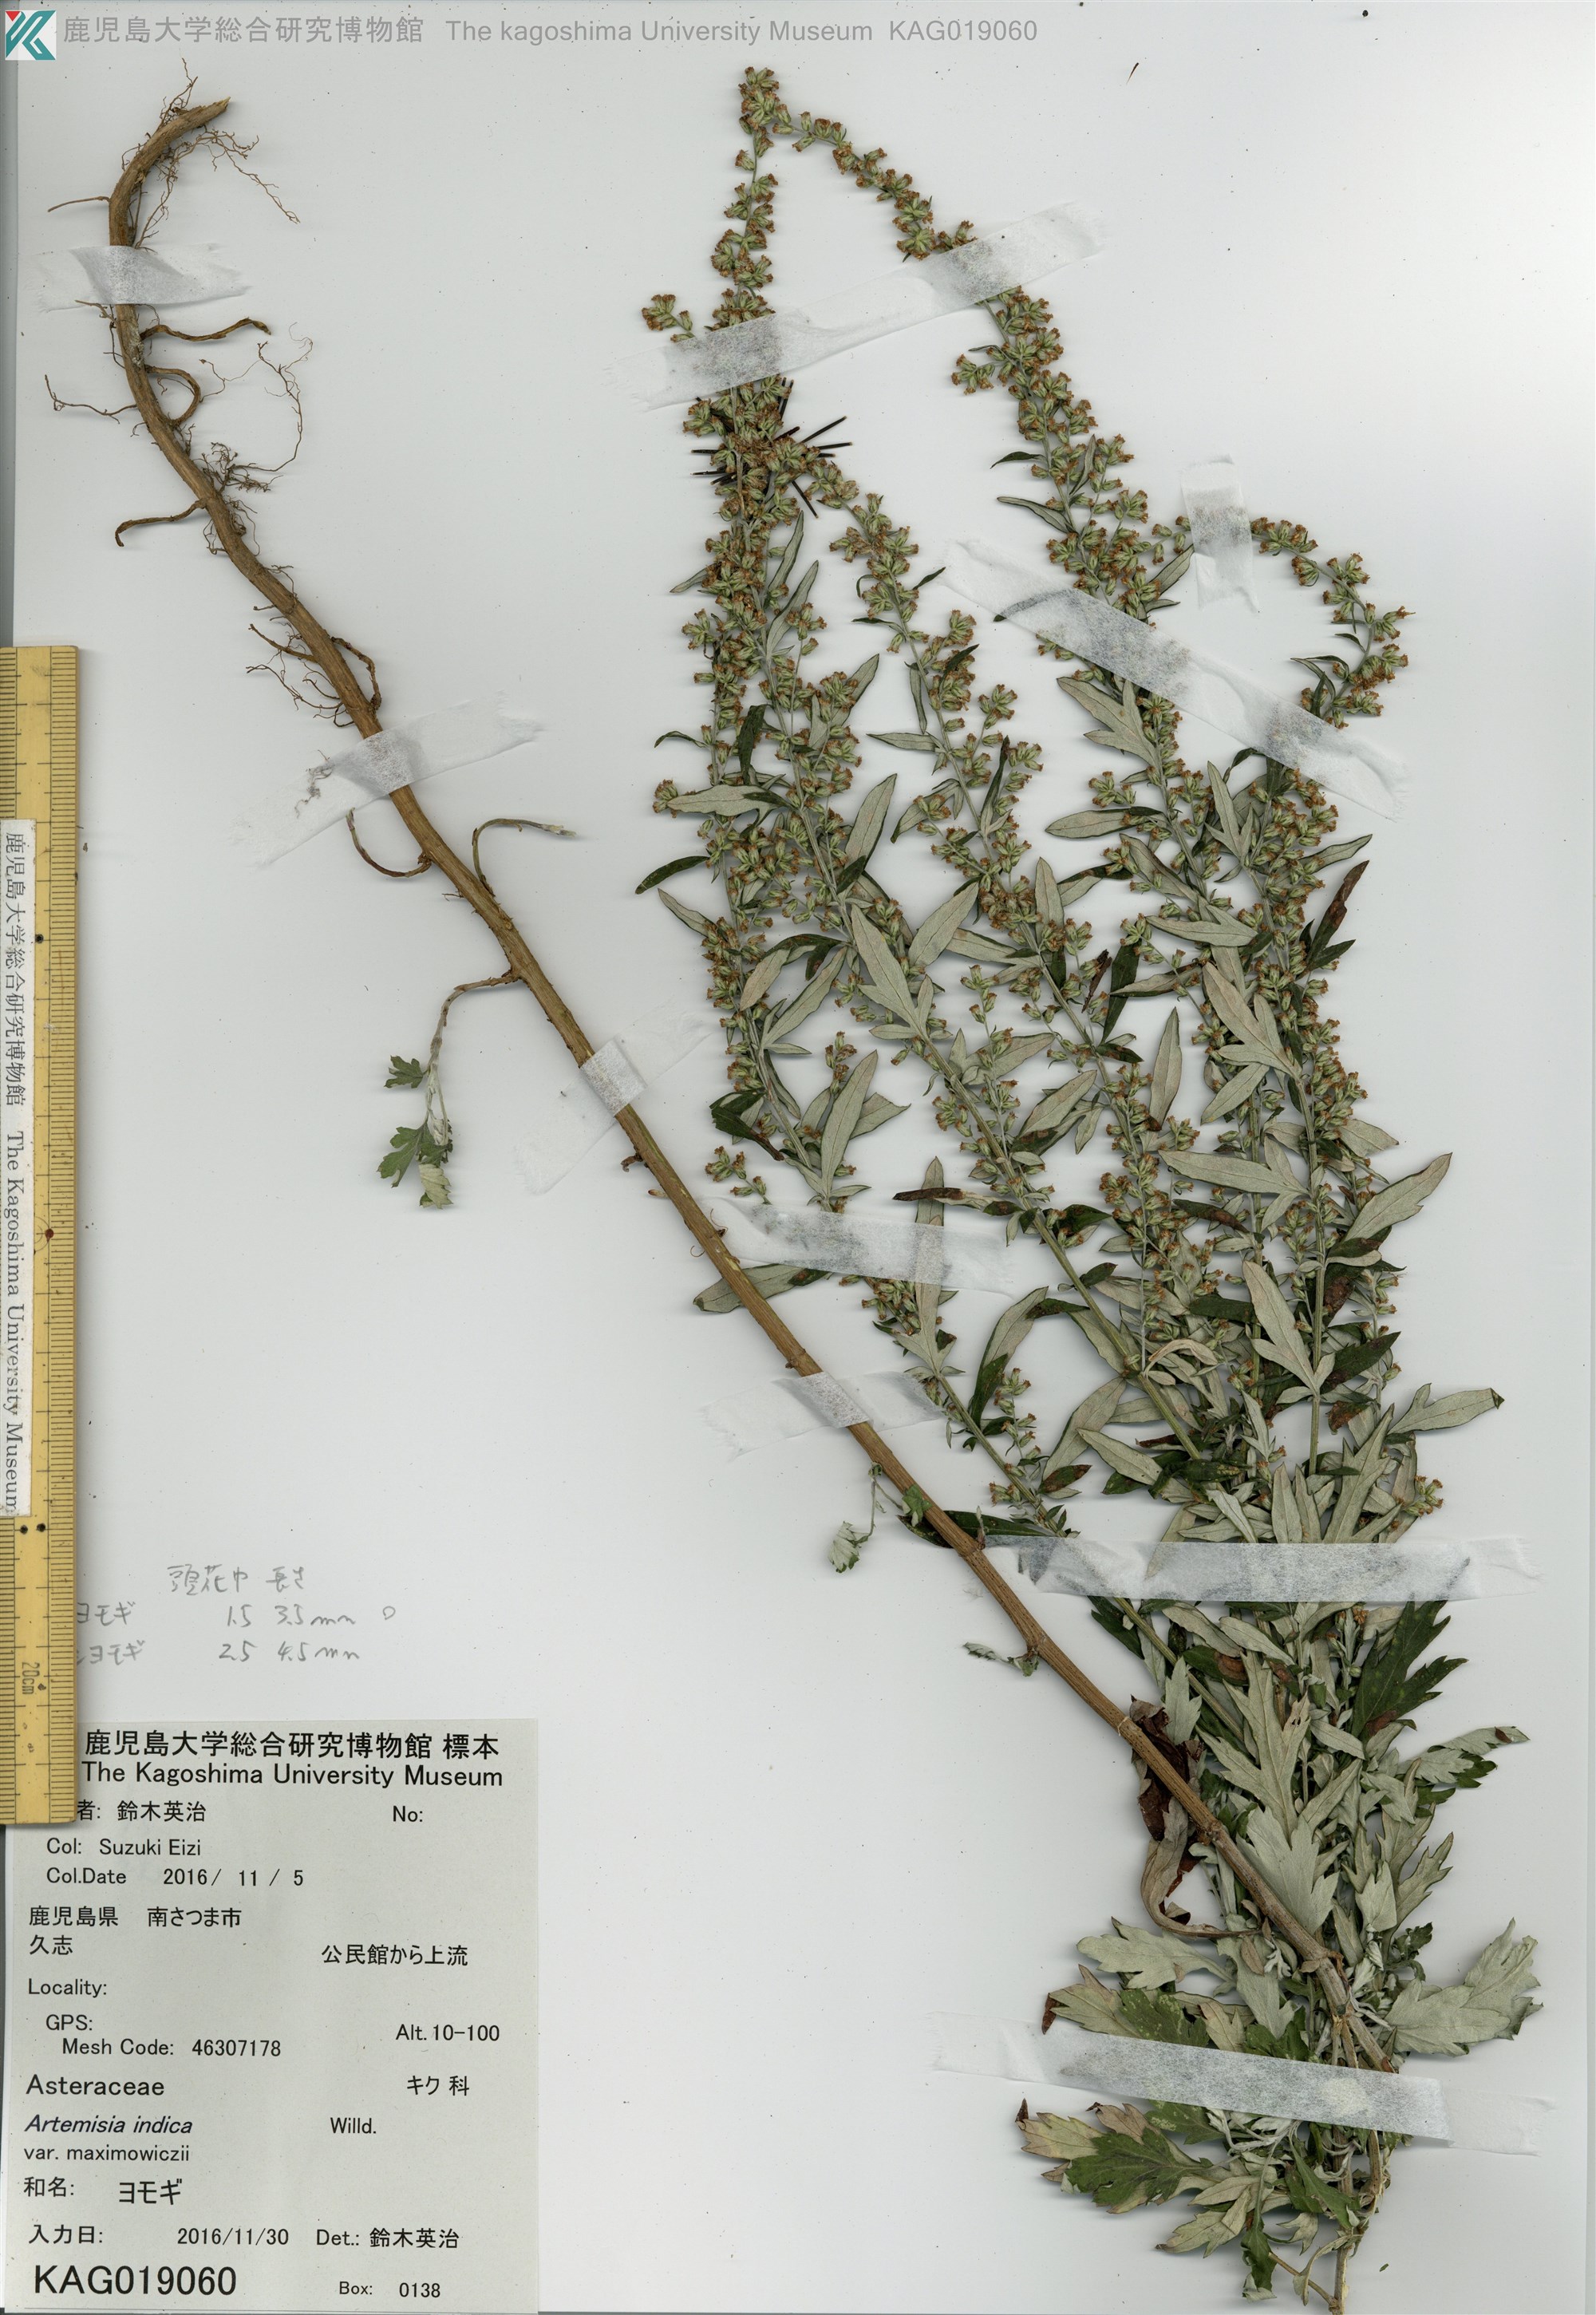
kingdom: Plantae
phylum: Tracheophyta
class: Magnoliopsida
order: Asterales
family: Asteraceae
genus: Artemisia
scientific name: Artemisia princeps
